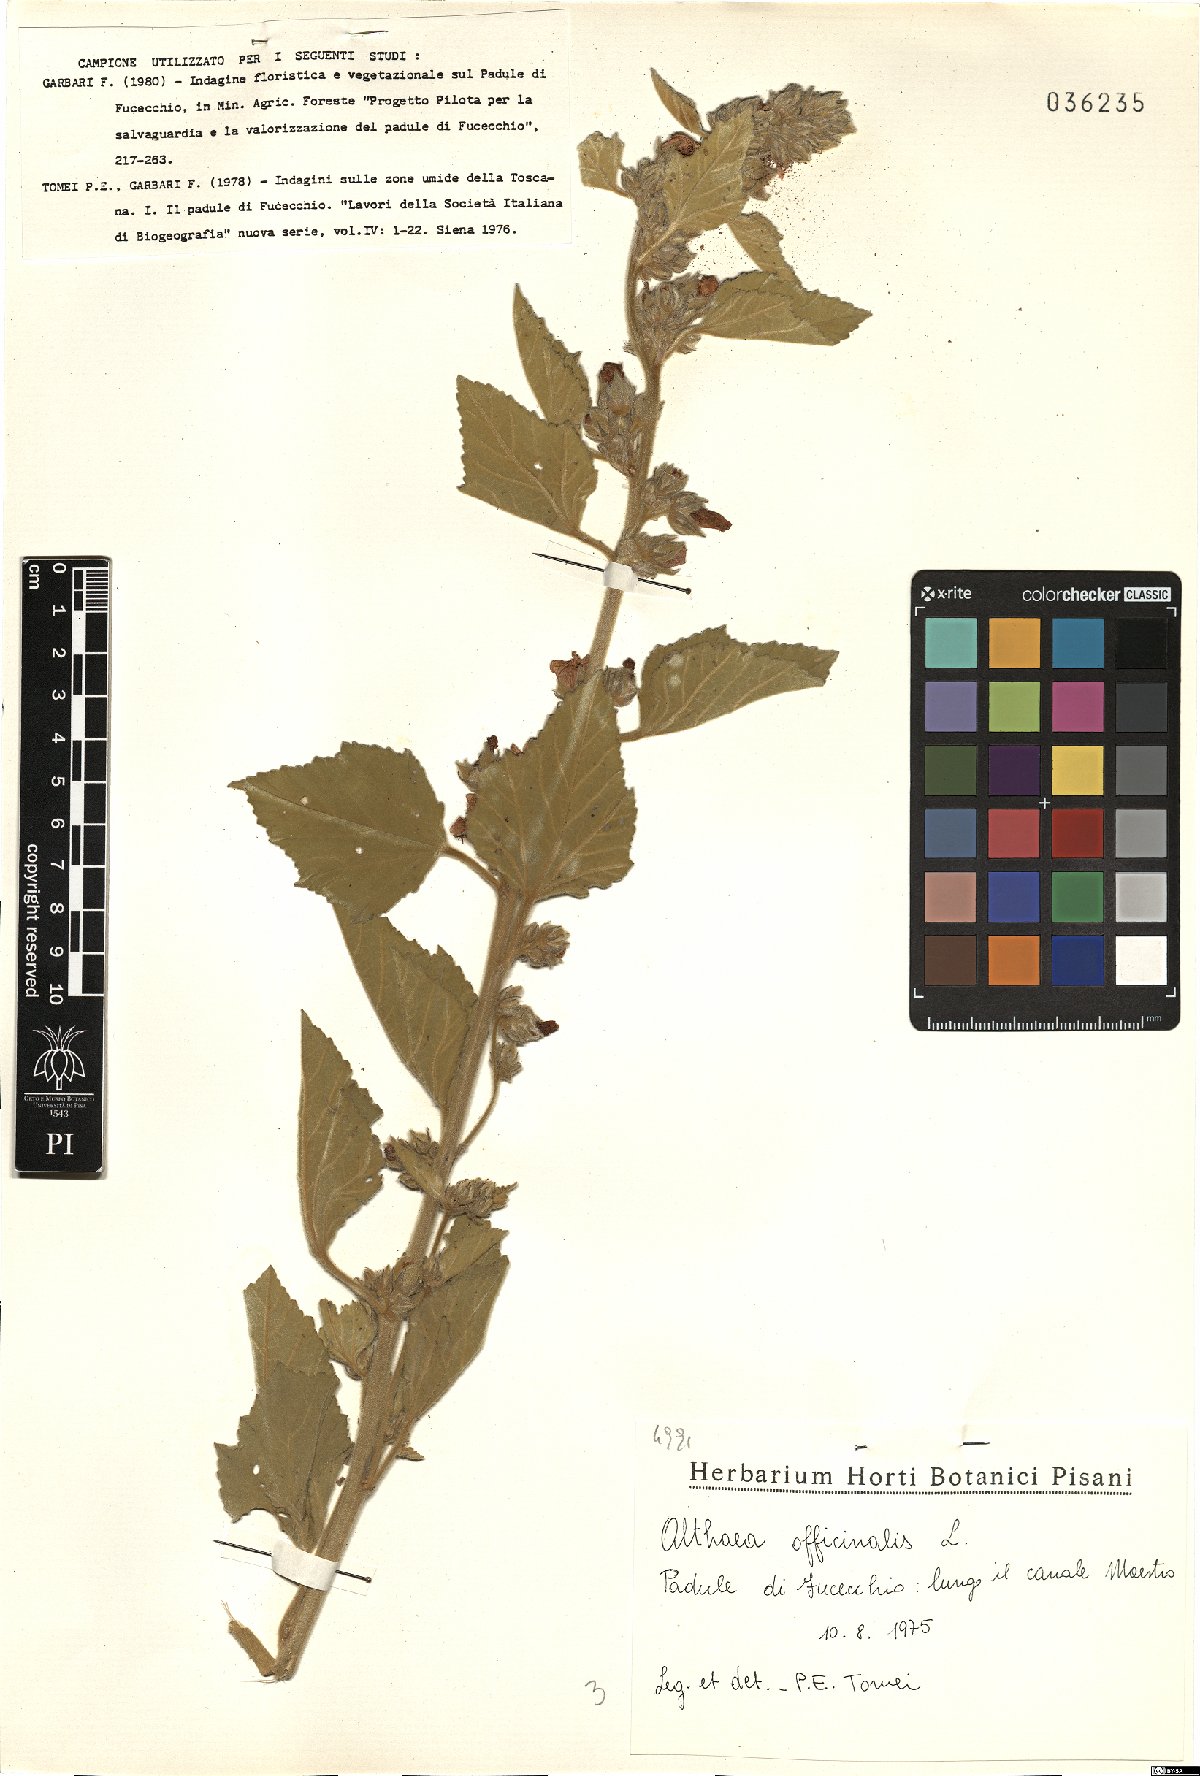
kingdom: Plantae
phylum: Tracheophyta
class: Magnoliopsida
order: Malvales
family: Malvaceae
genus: Althaea
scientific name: Althaea officinalis
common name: Marsh-mallow
